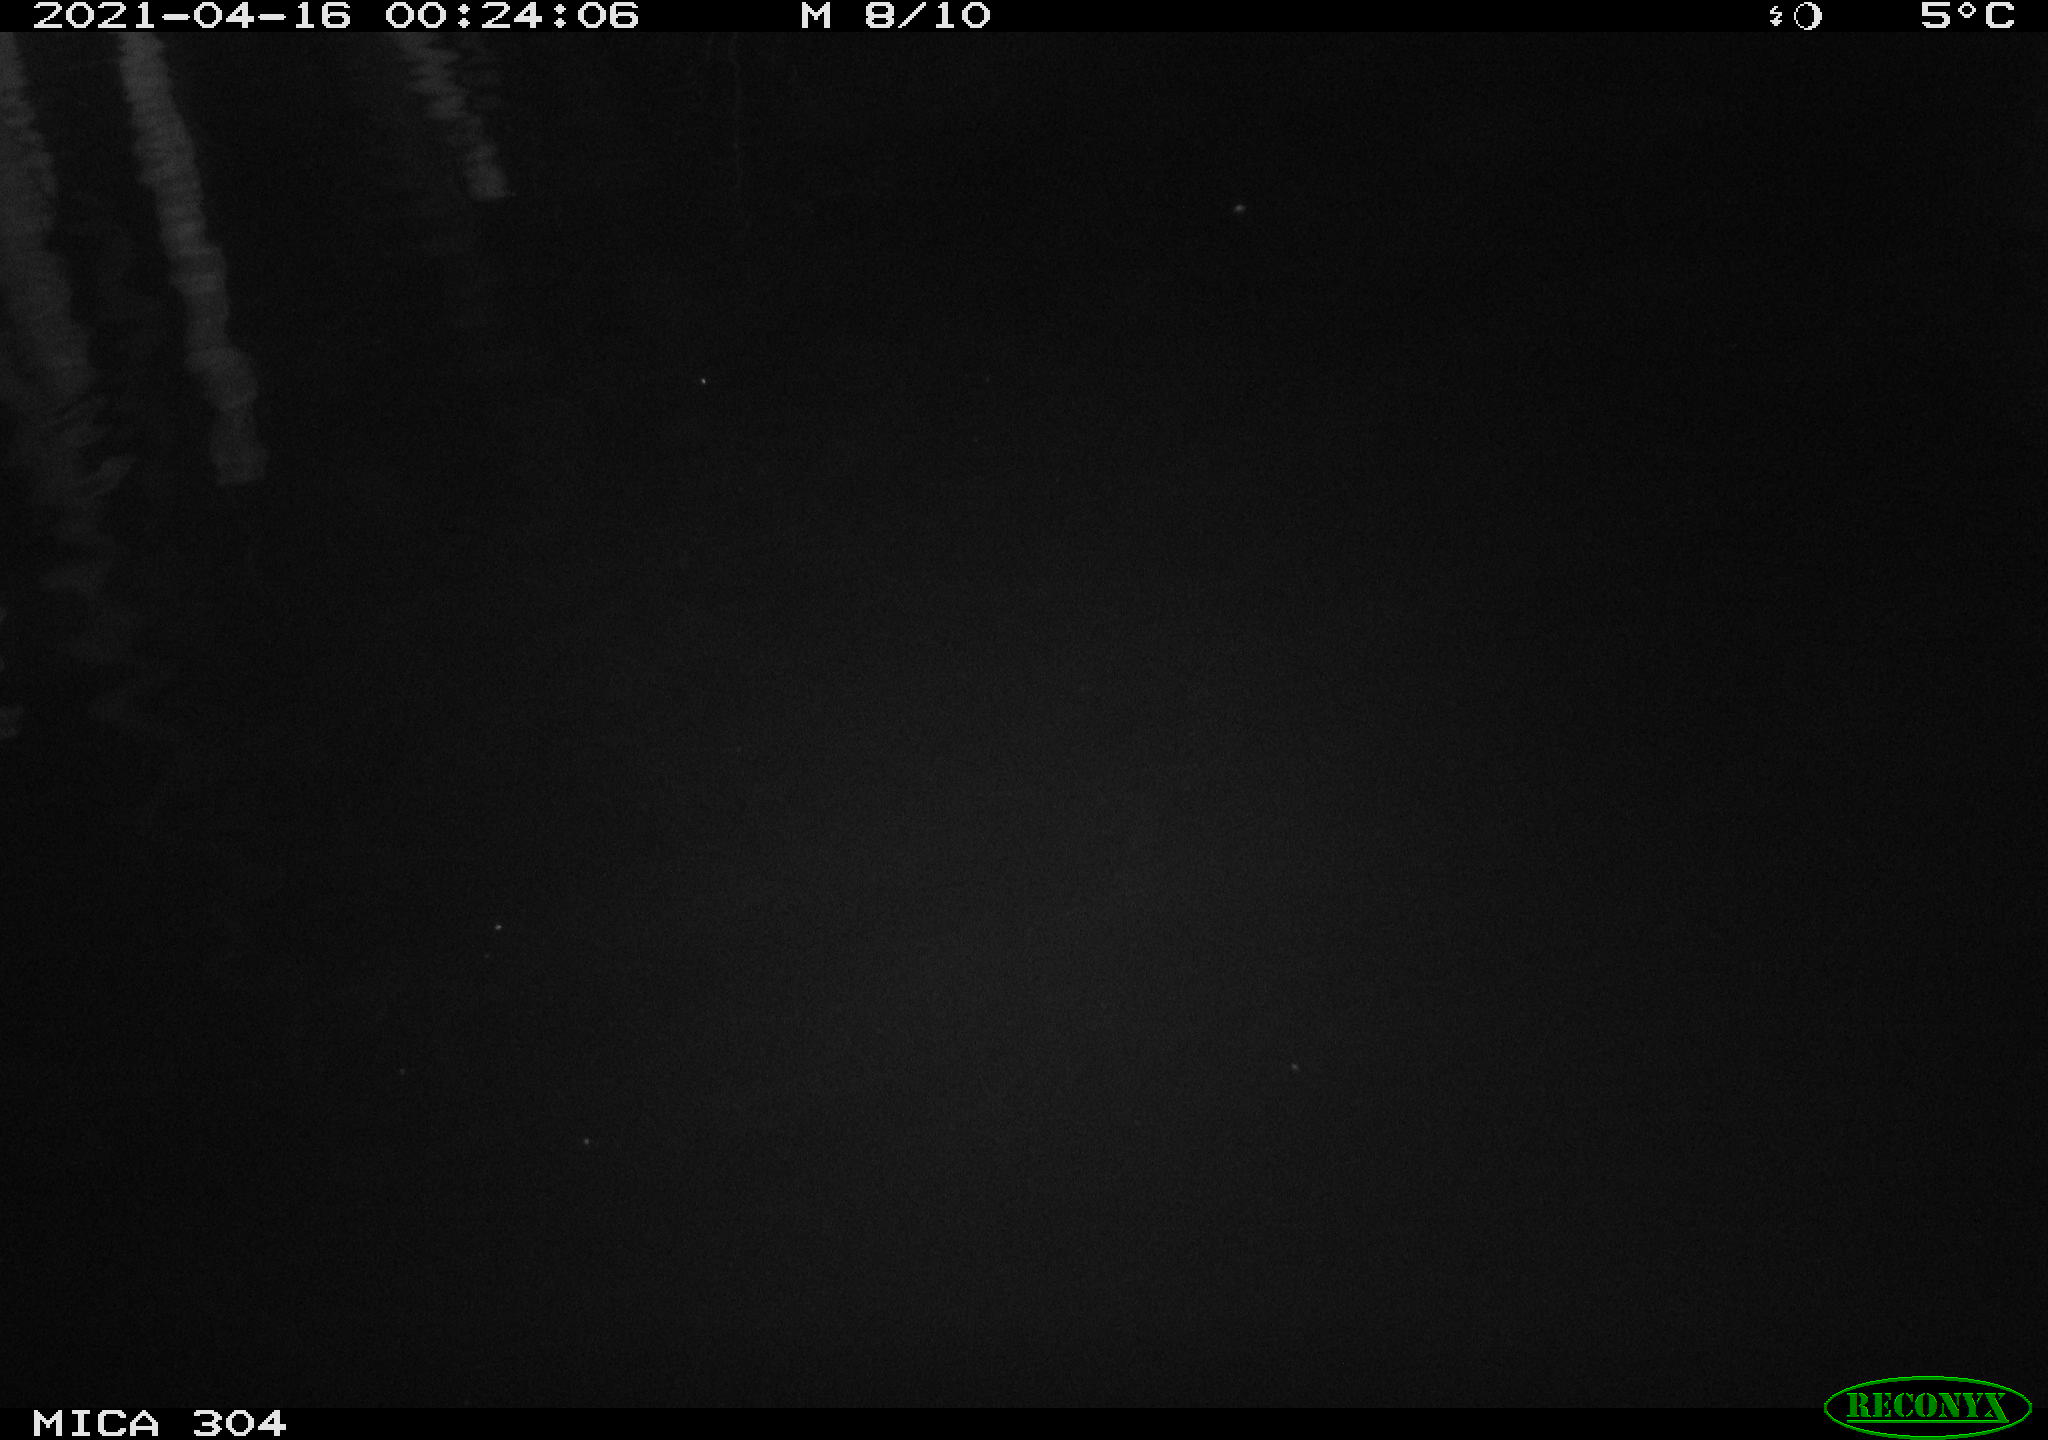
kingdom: Animalia
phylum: Chordata
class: Aves
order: Anseriformes
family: Anatidae
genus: Anas
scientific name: Anas
